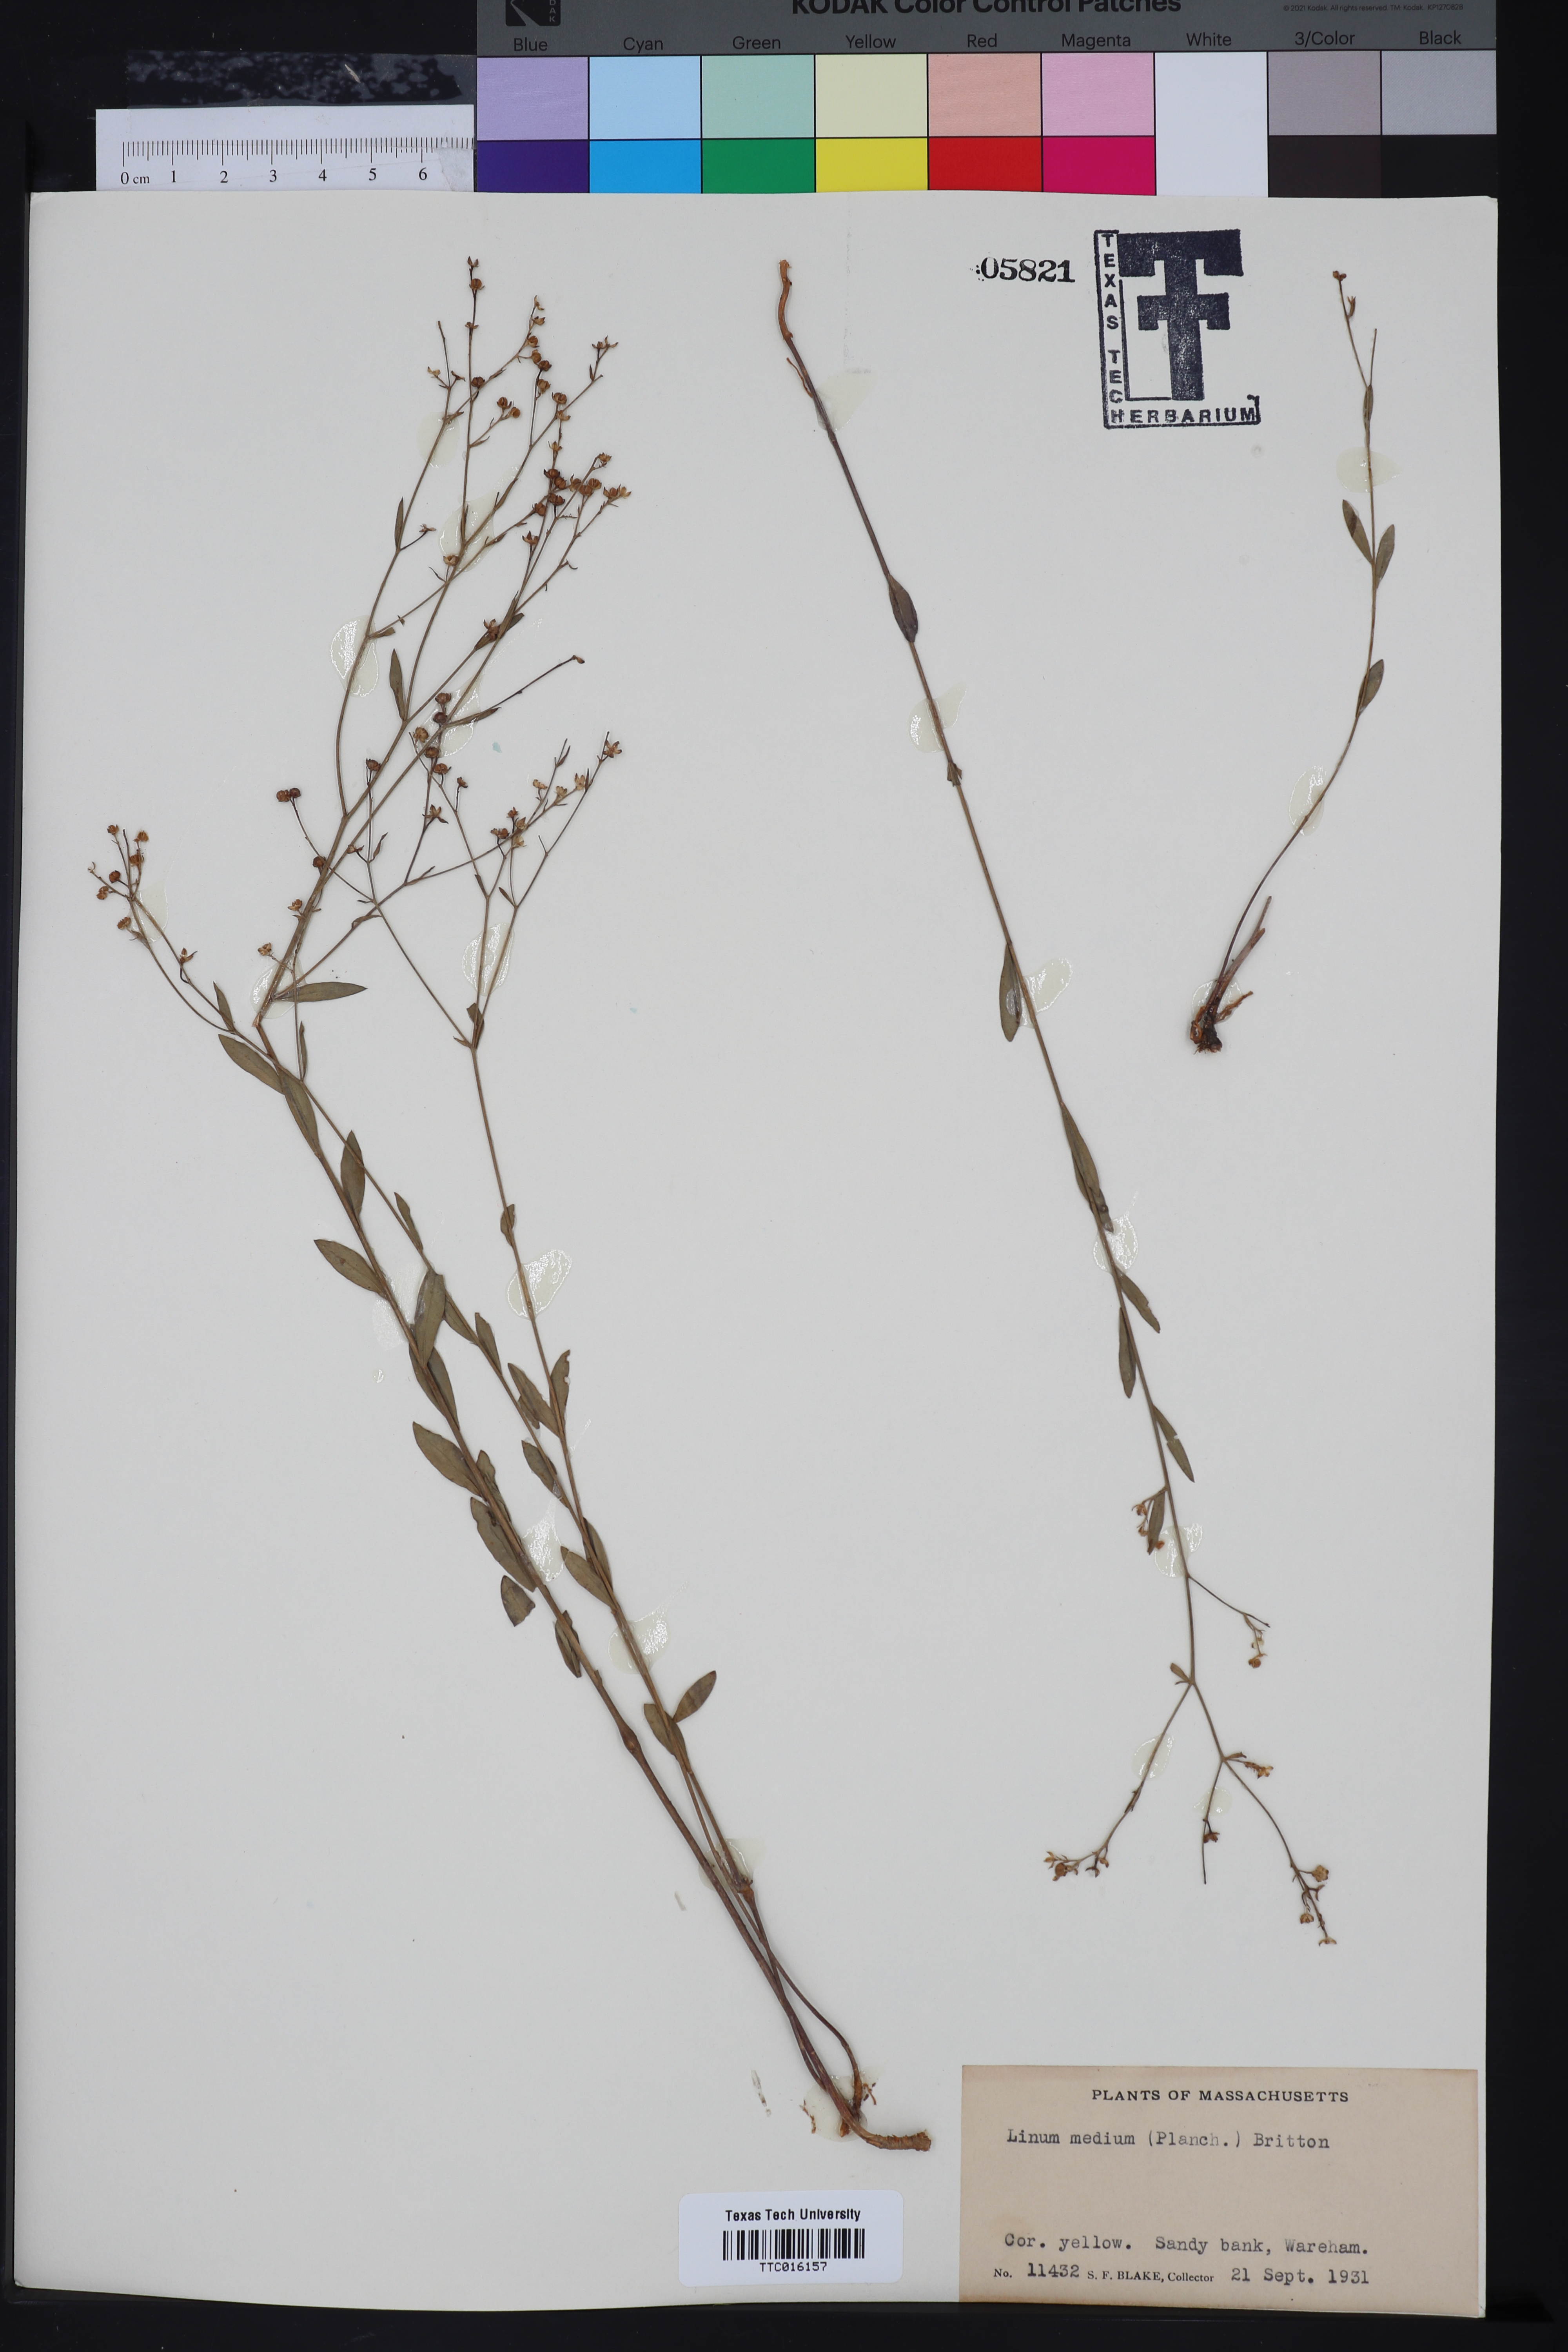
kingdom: Plantae
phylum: Tracheophyta
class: Magnoliopsida
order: Malpighiales
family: Linaceae
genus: Linum
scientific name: Linum medium
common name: Stiff yellow flax
